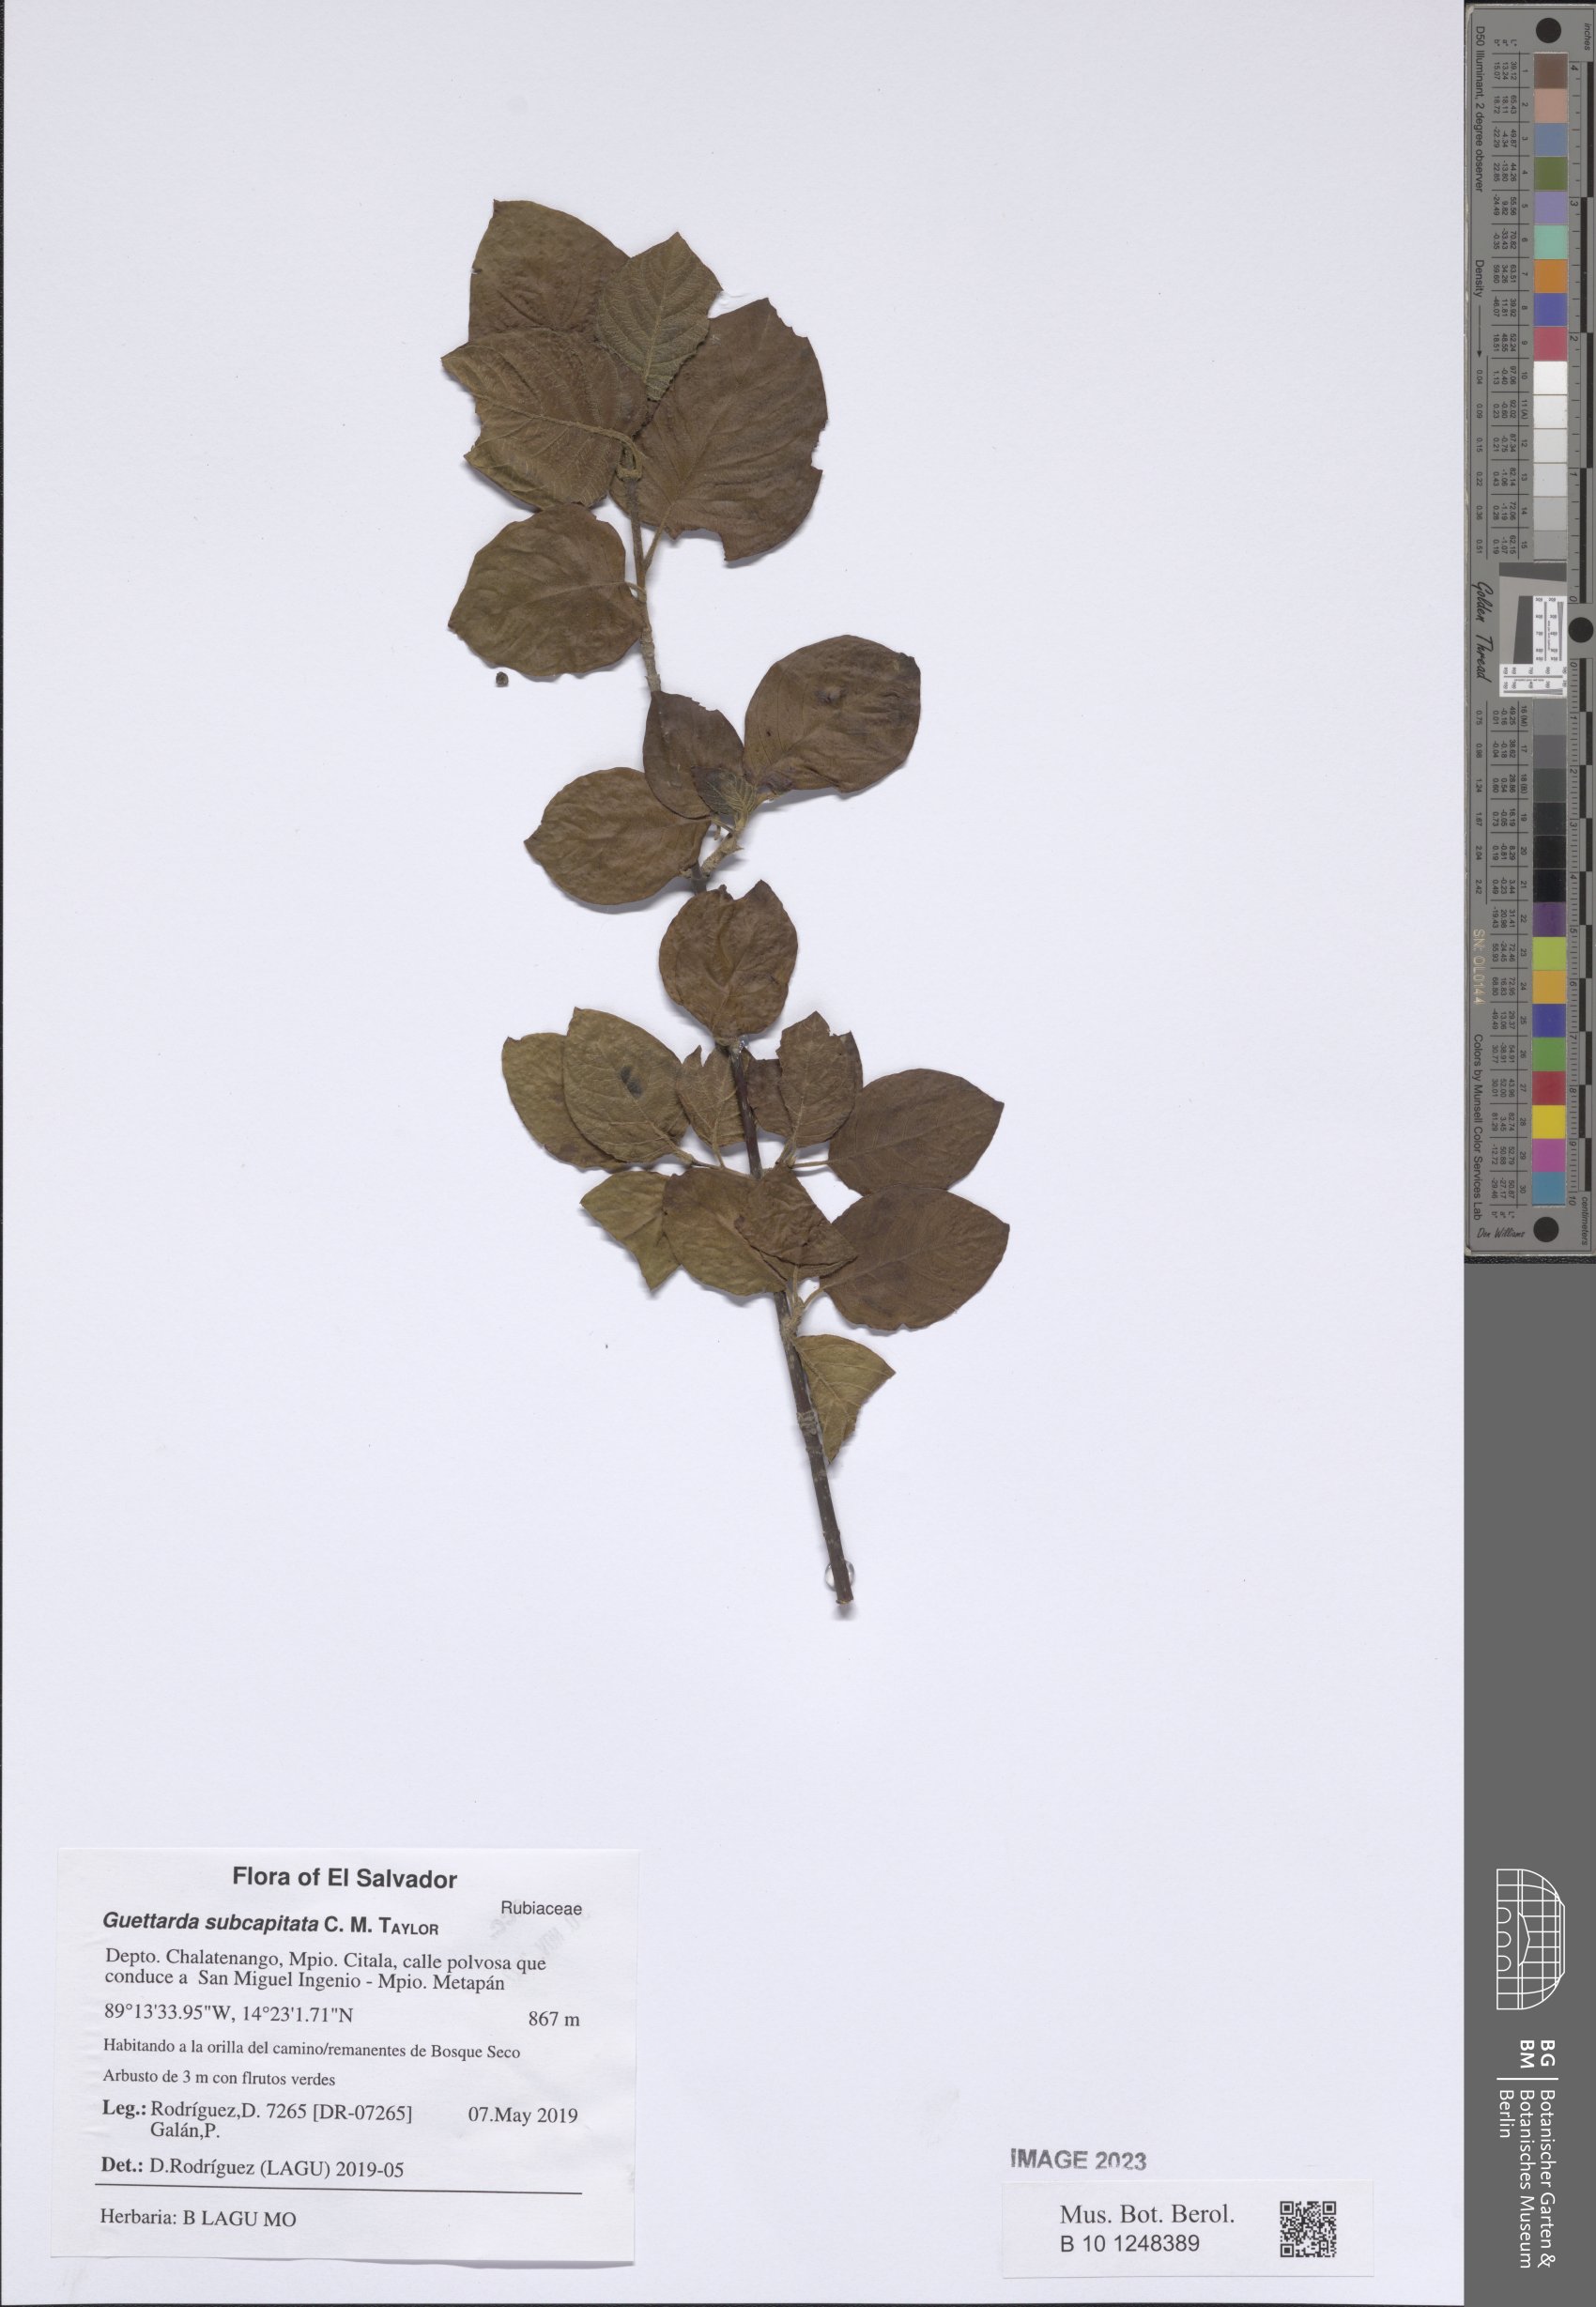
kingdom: Plantae
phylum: Tracheophyta
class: Magnoliopsida
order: Gentianales
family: Rubiaceae
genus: Guettarda
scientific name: Guettarda subcapitata
